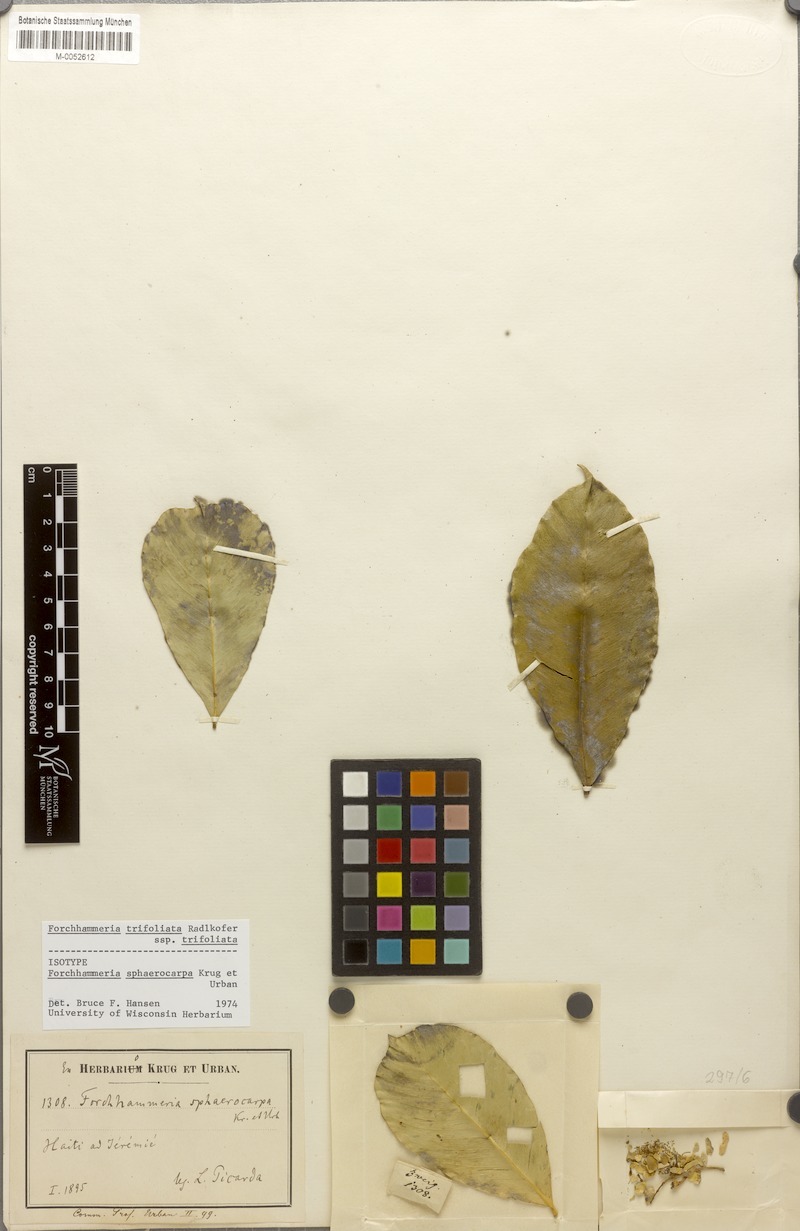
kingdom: Plantae
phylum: Tracheophyta
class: Magnoliopsida
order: Brassicales
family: Stixaceae
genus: Forchhammeria
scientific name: Forchhammeria trifoliata
